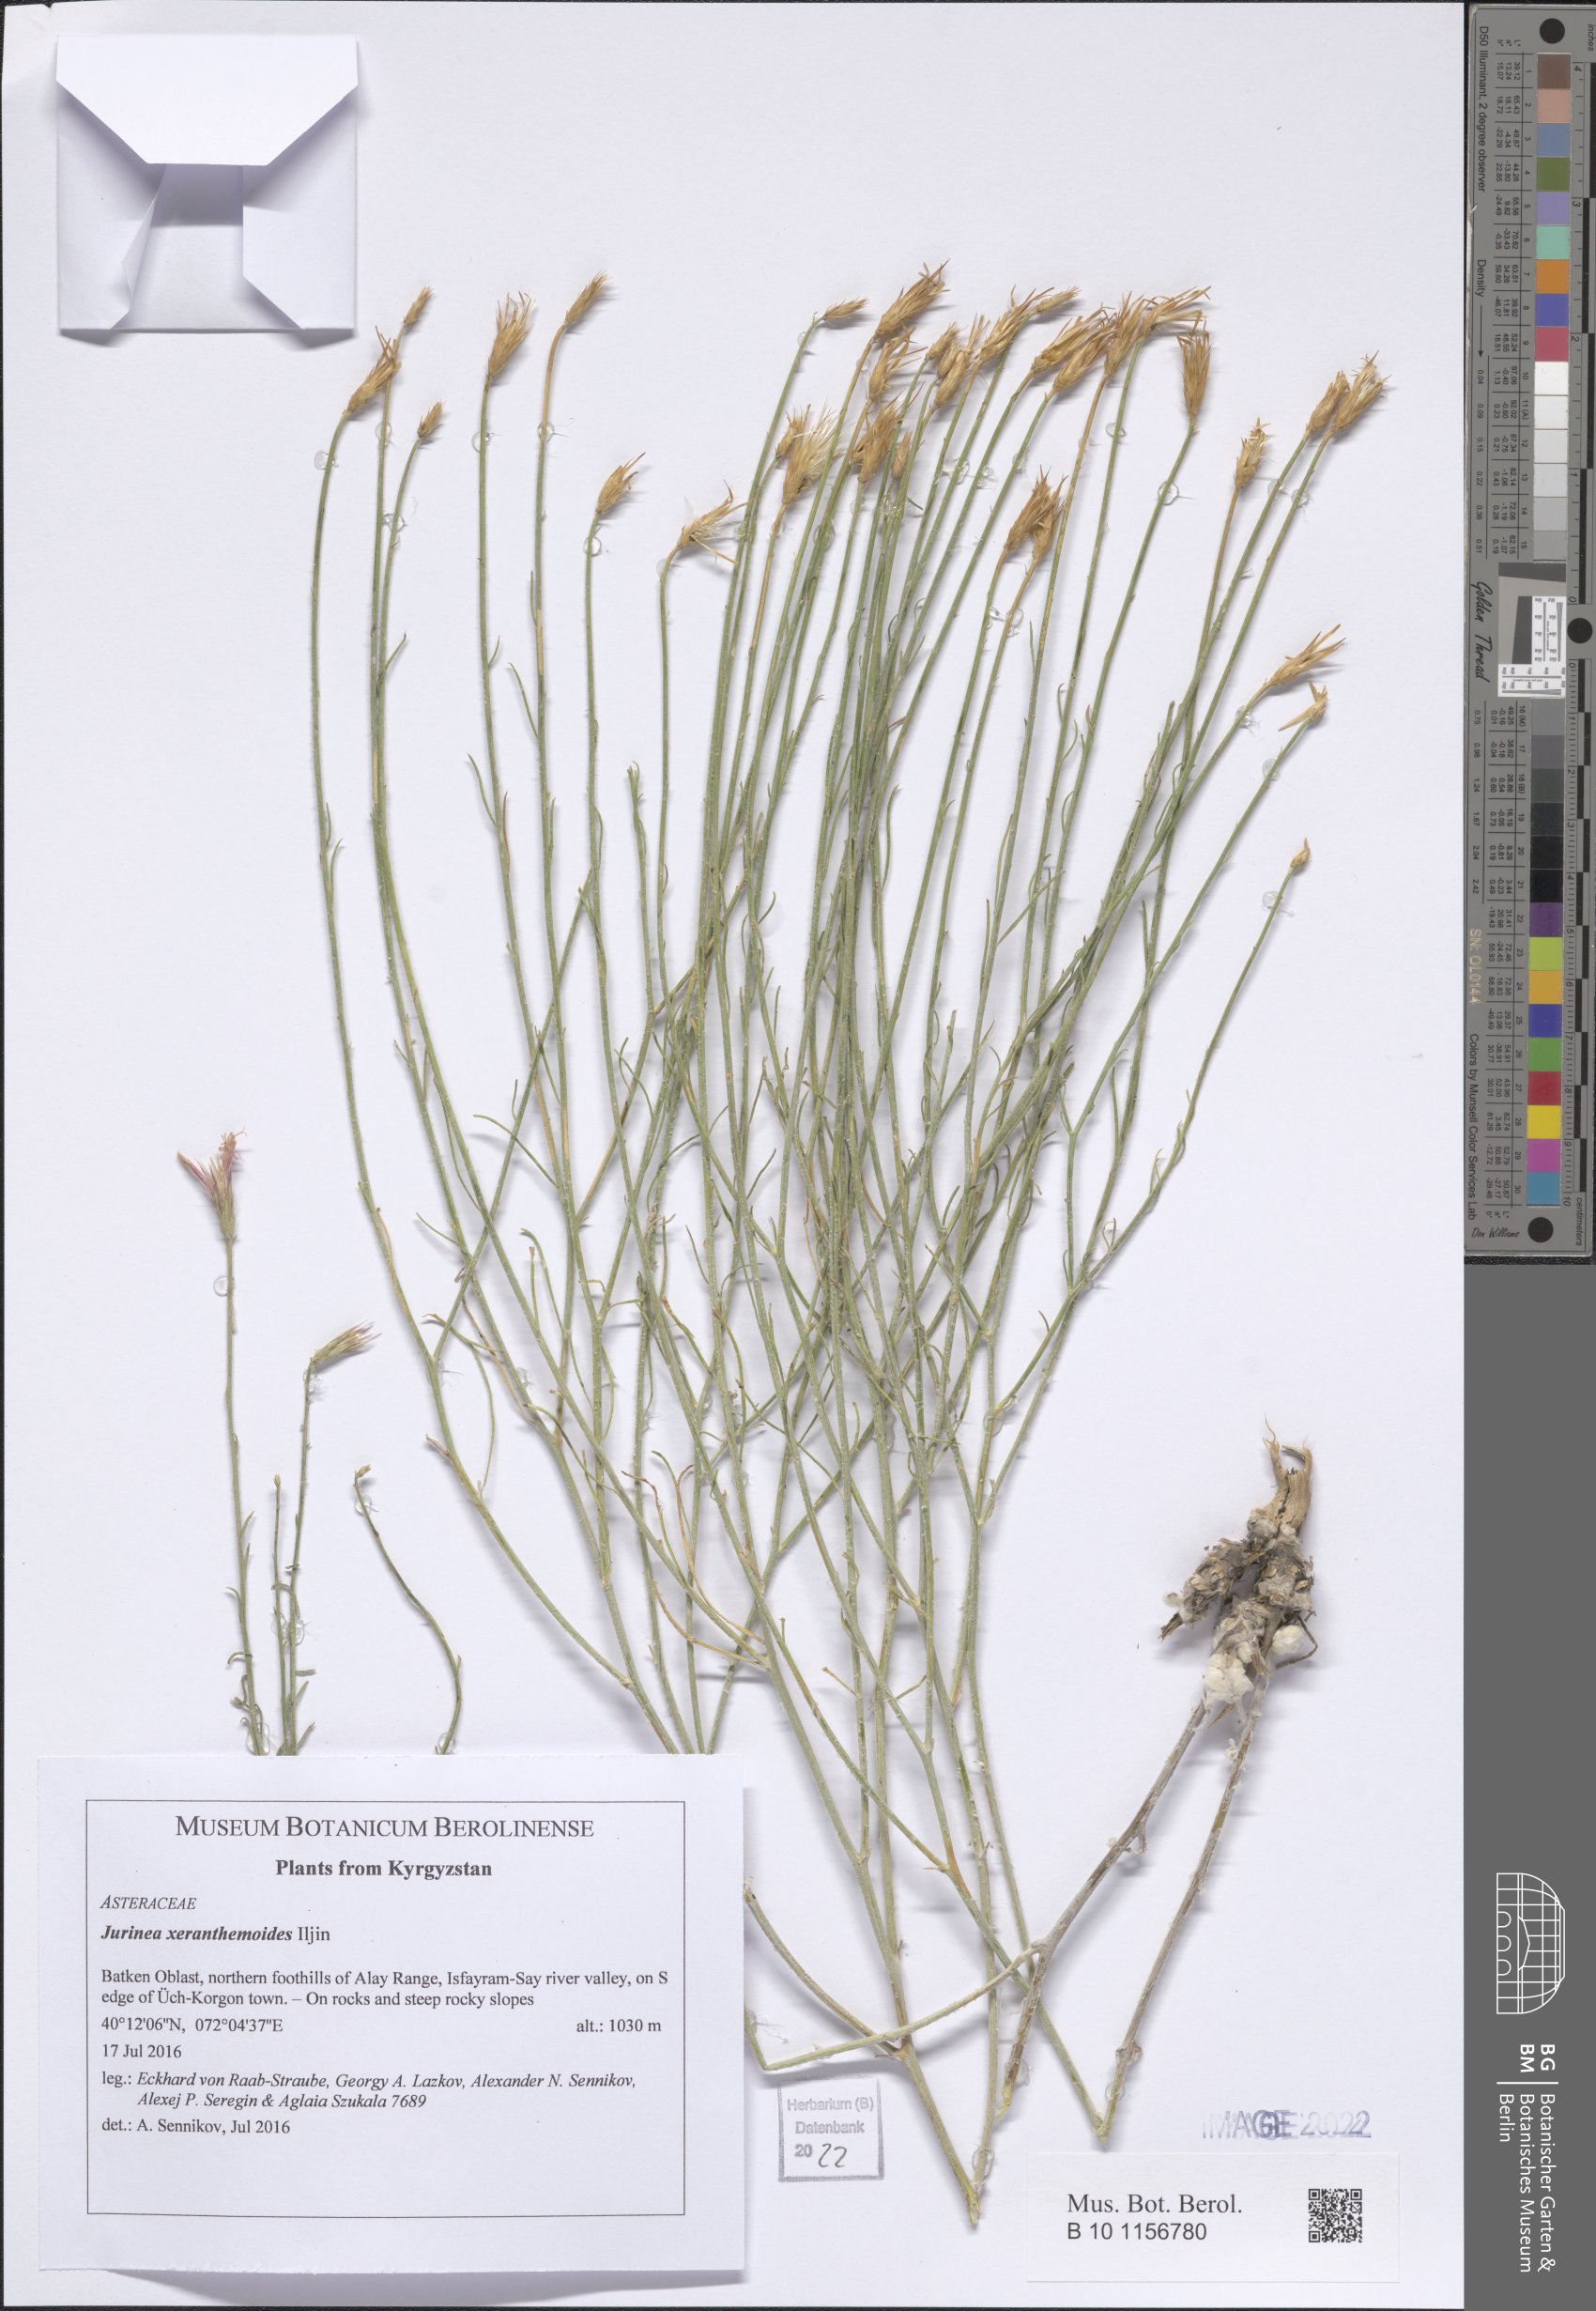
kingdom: Plantae
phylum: Tracheophyta
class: Magnoliopsida
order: Asterales
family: Asteraceae
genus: Jurinea
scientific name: Jurinea xeranthemoides
